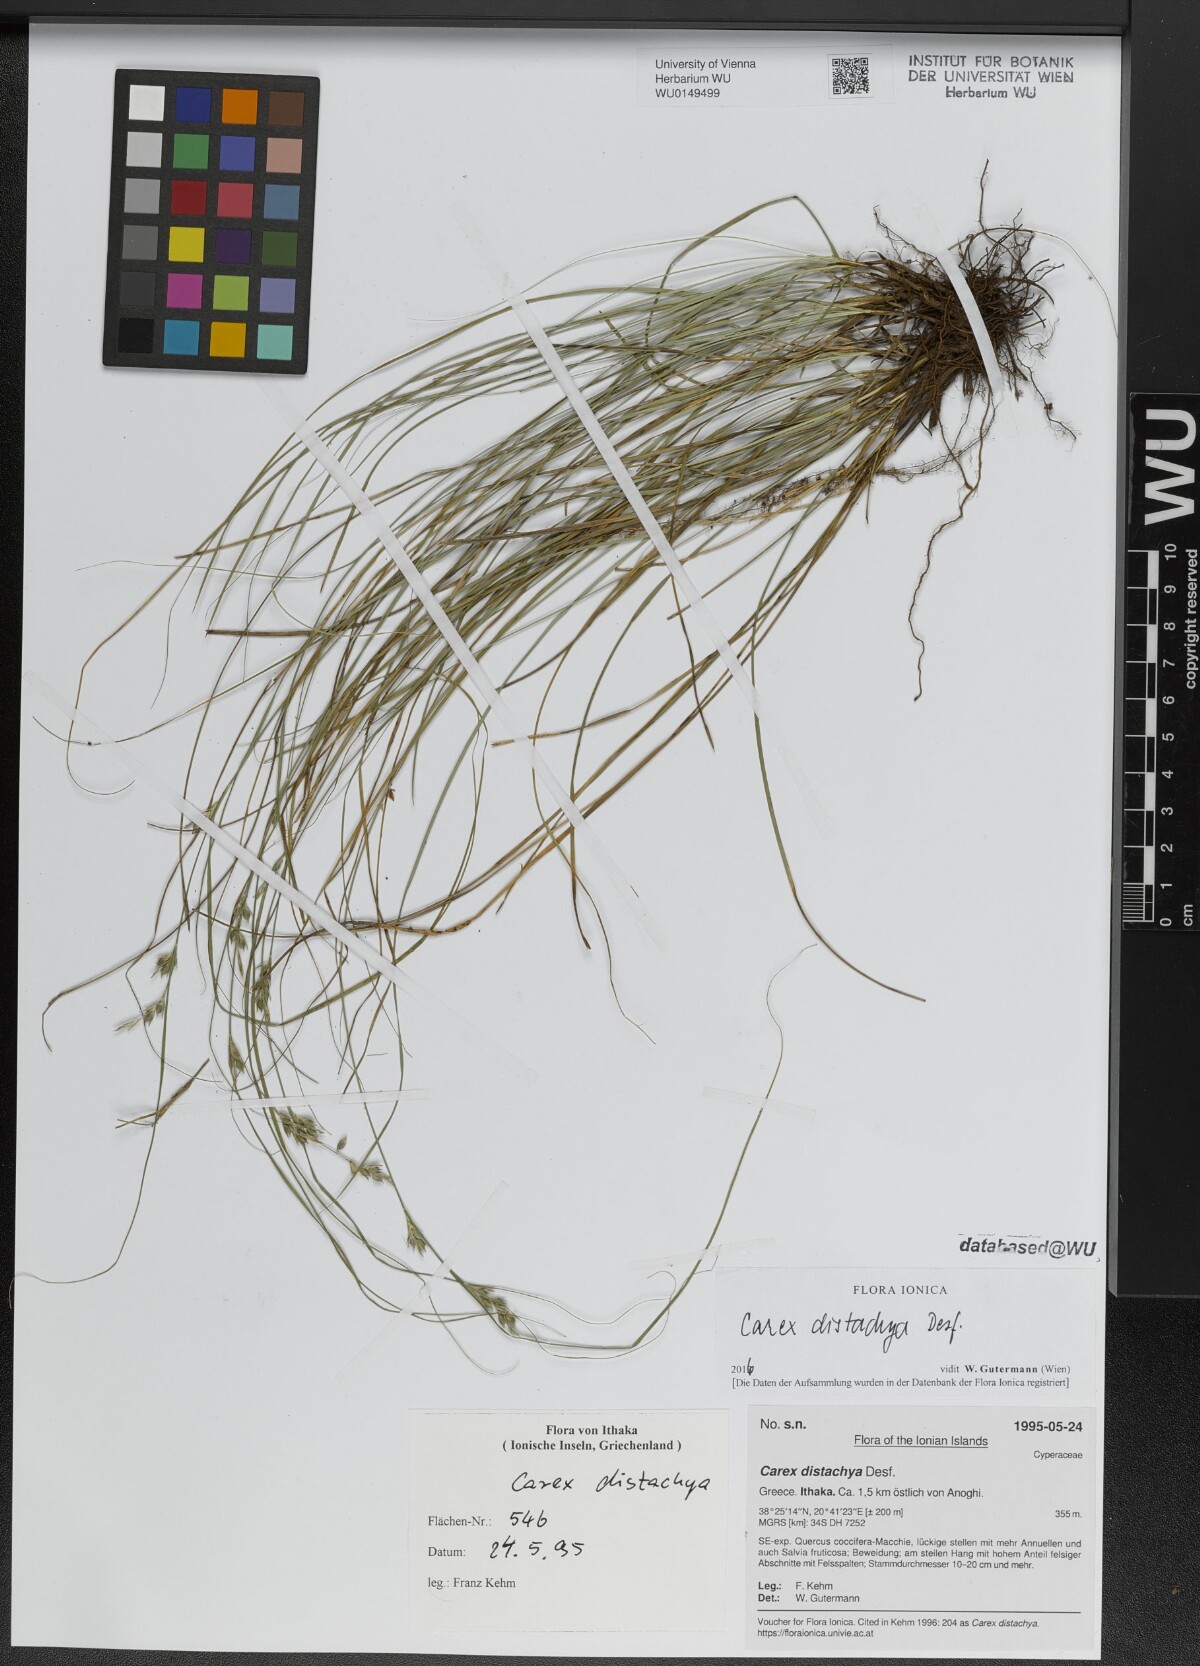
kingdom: Plantae
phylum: Tracheophyta
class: Liliopsida
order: Poales
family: Cyperaceae
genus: Carex
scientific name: Carex distachya
